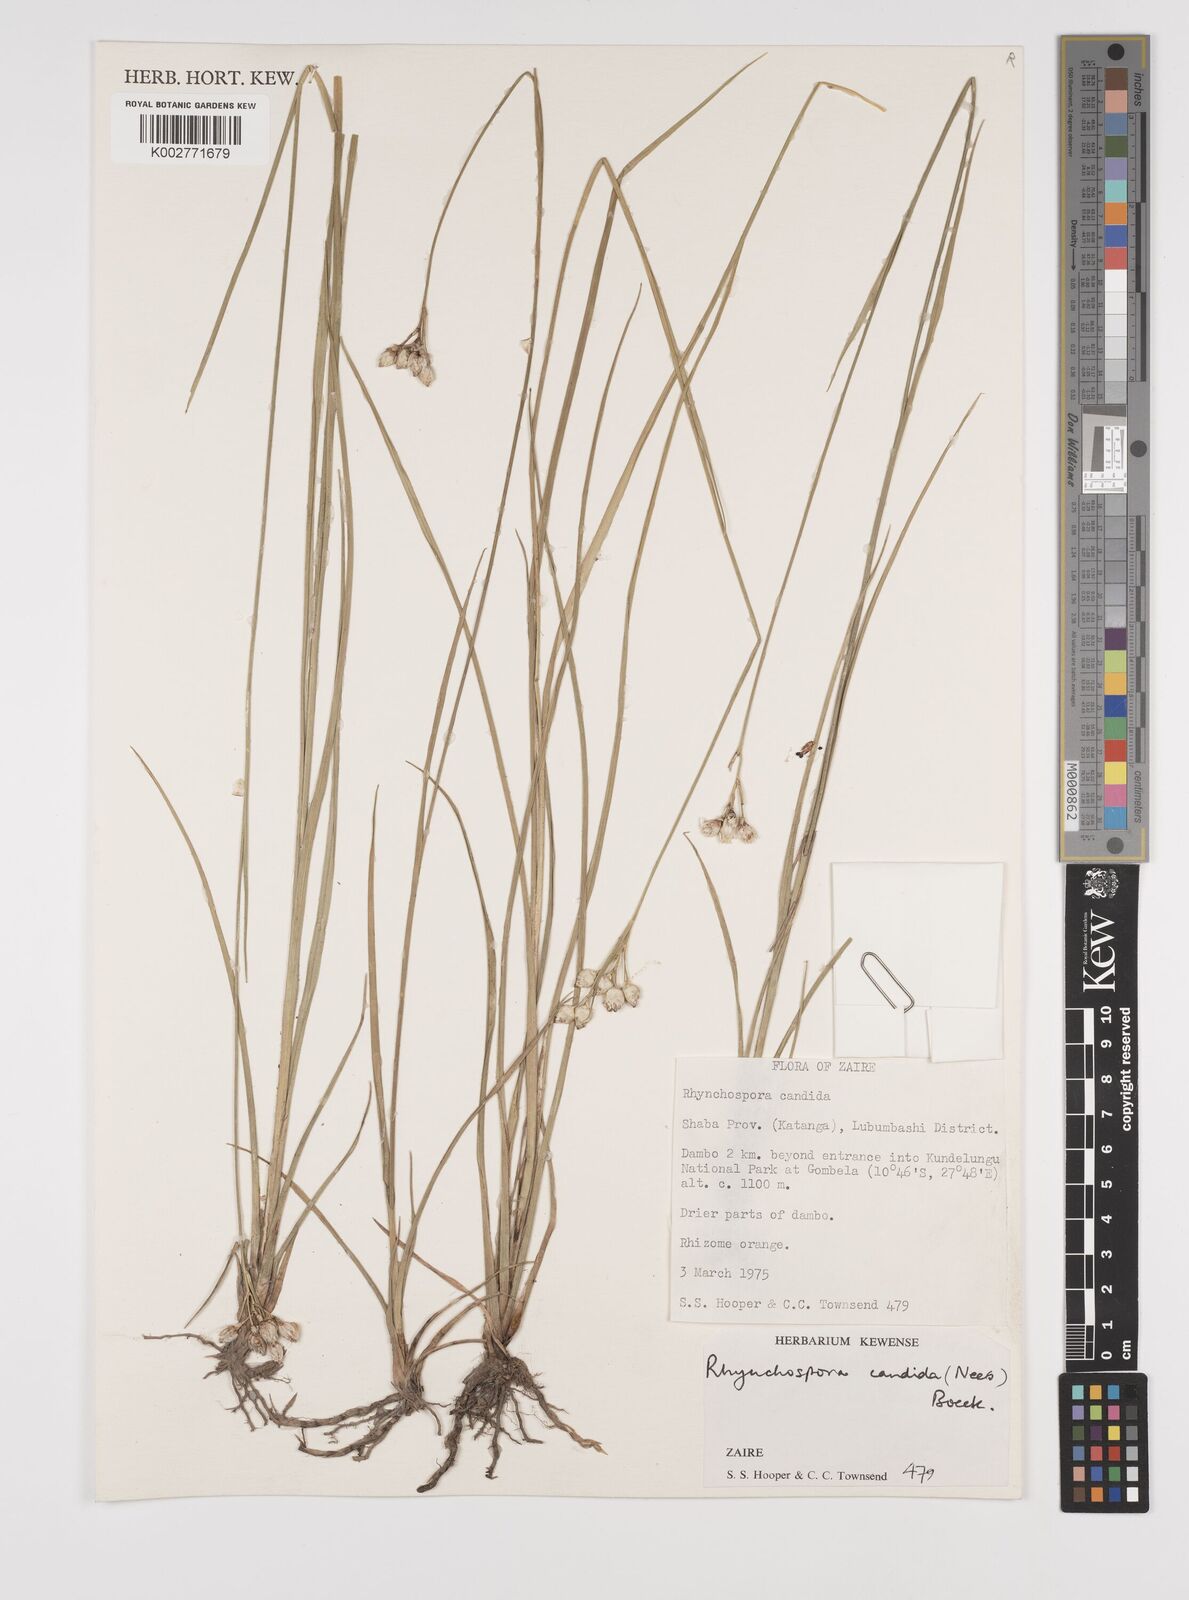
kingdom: Plantae
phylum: Tracheophyta
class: Liliopsida
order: Poales
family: Cyperaceae
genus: Rhynchospora
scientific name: Rhynchospora candida
